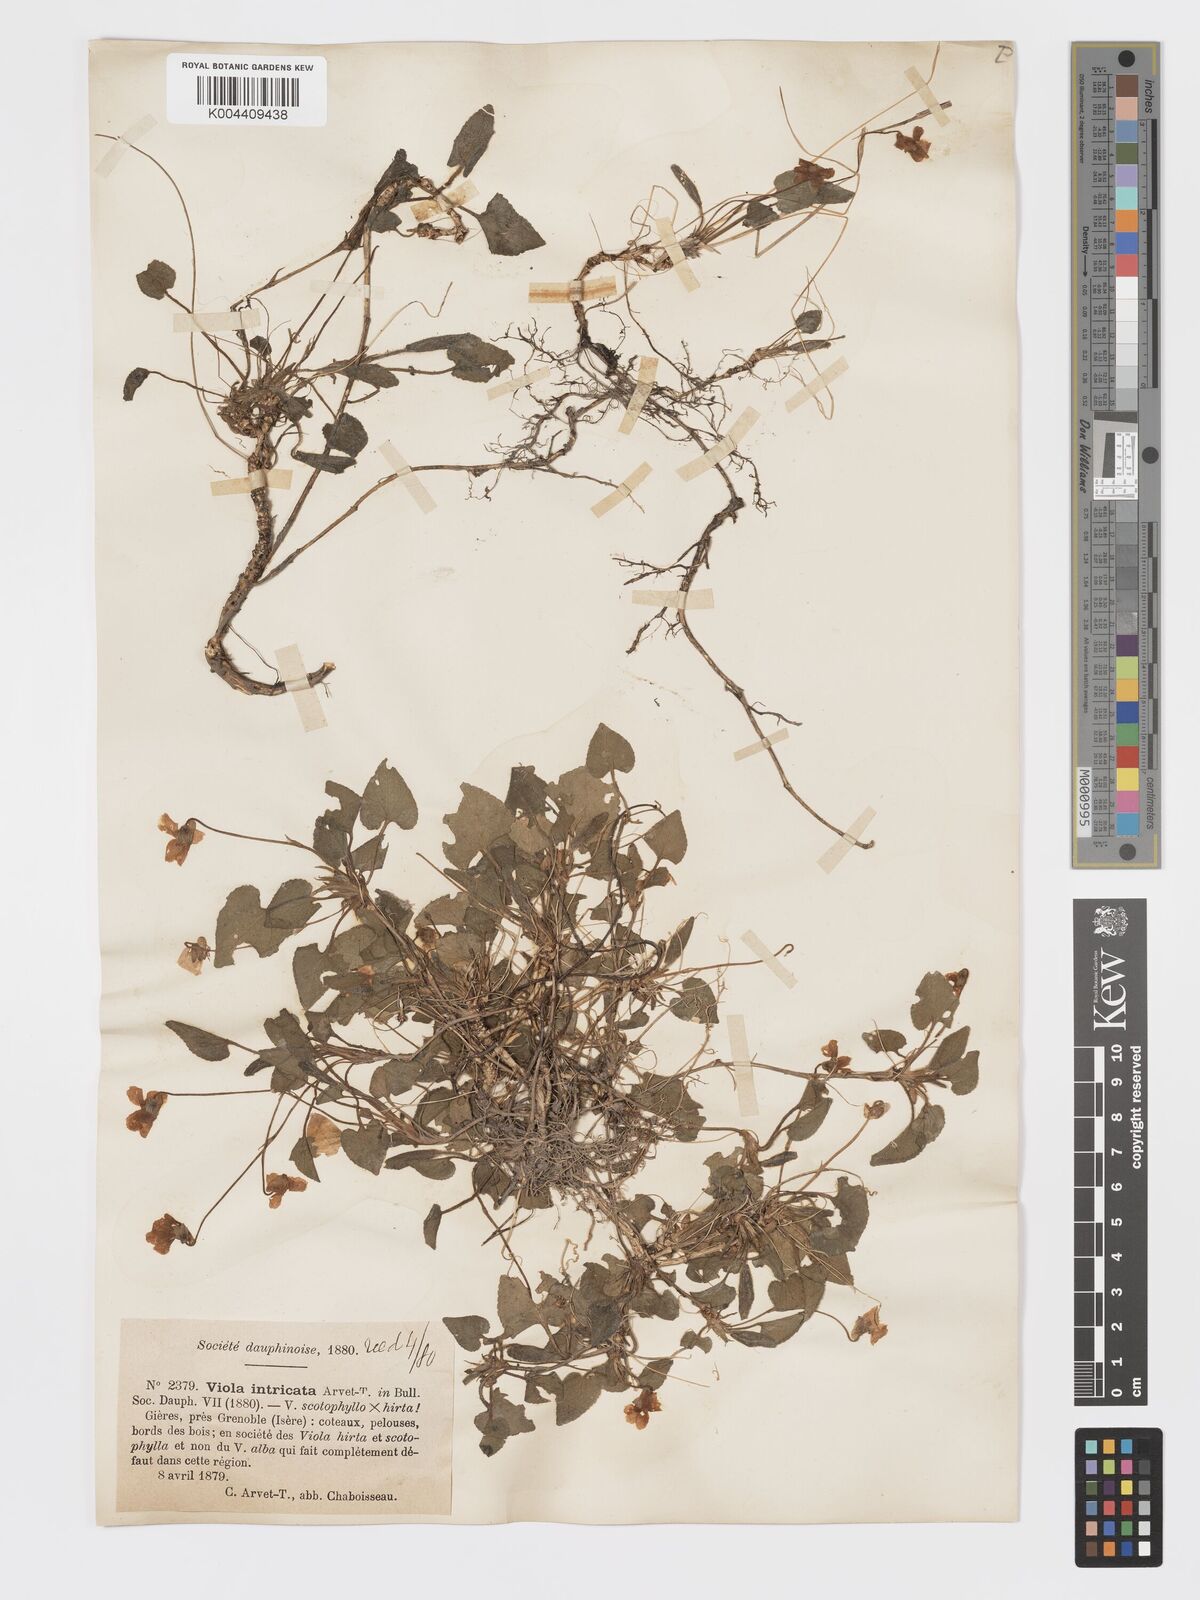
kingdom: Plantae
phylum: Tracheophyta
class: Magnoliopsida
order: Malpighiales
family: Violaceae
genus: Viola
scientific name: Viola alba
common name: White violet
